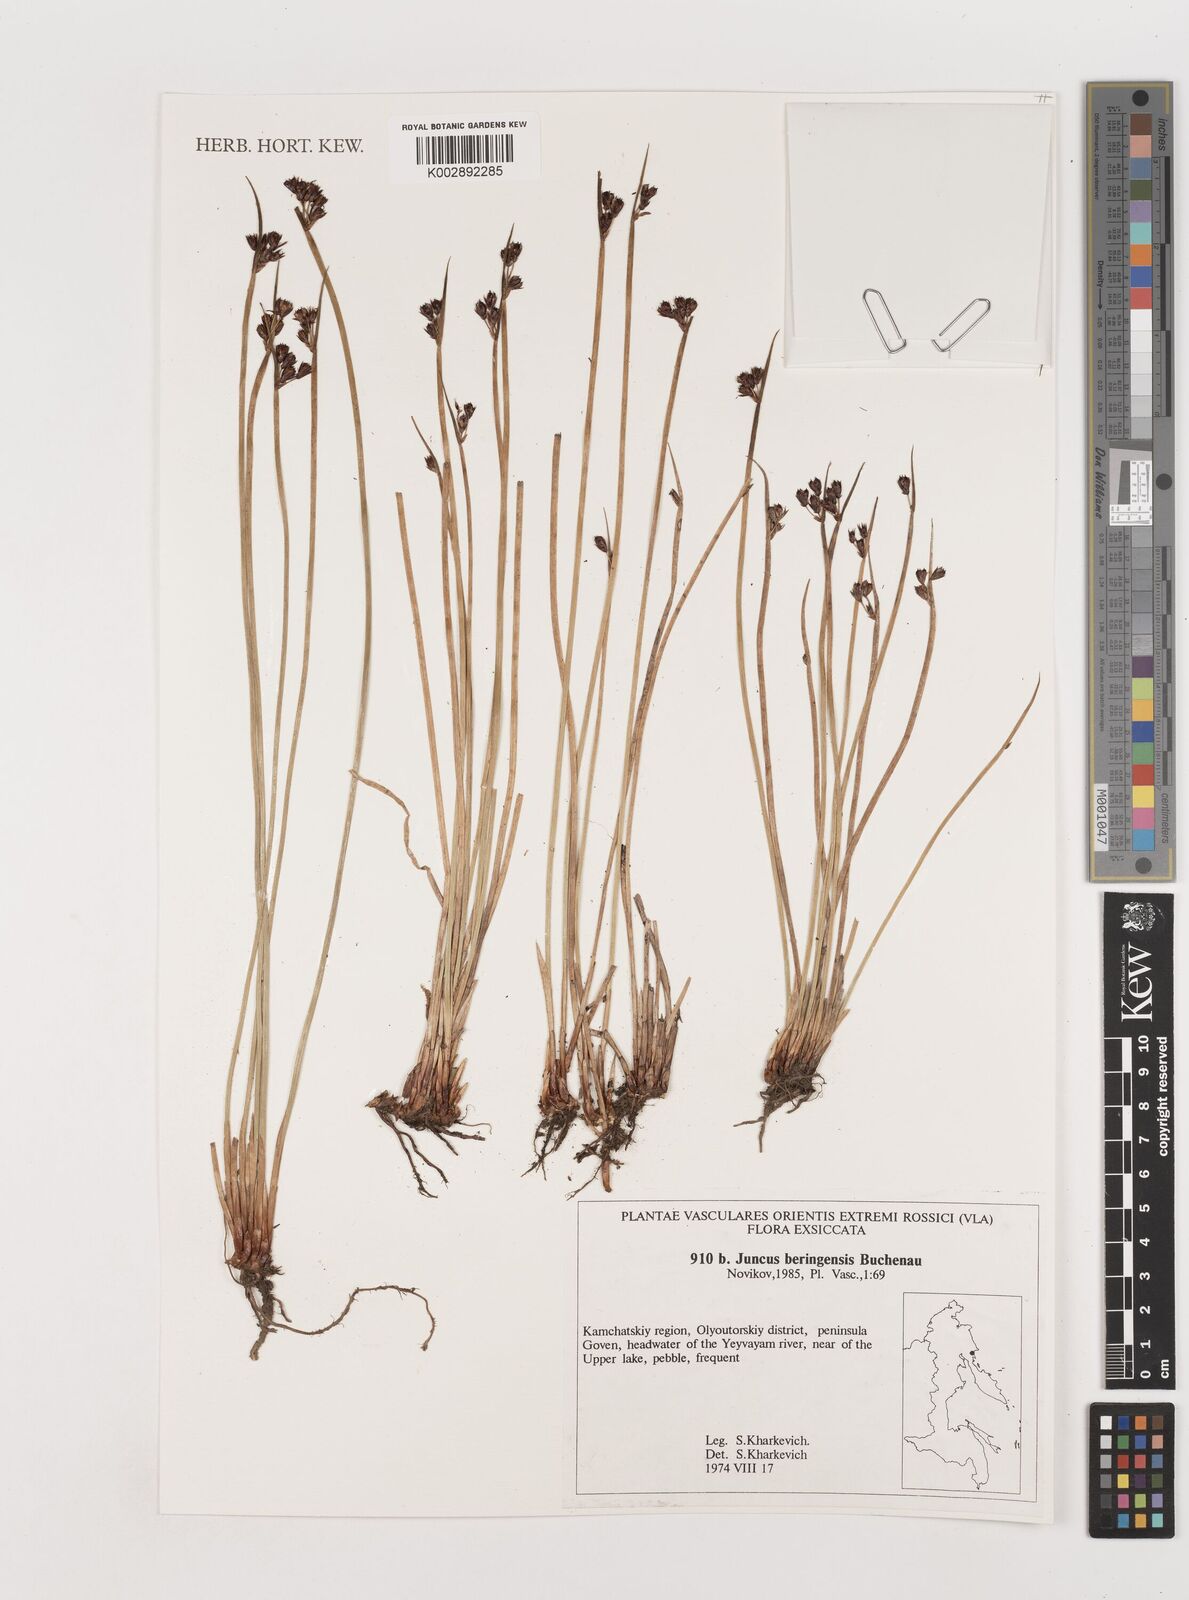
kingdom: Plantae
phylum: Tracheophyta
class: Liliopsida
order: Poales
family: Juncaceae
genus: Juncus
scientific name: Juncus beringensis
